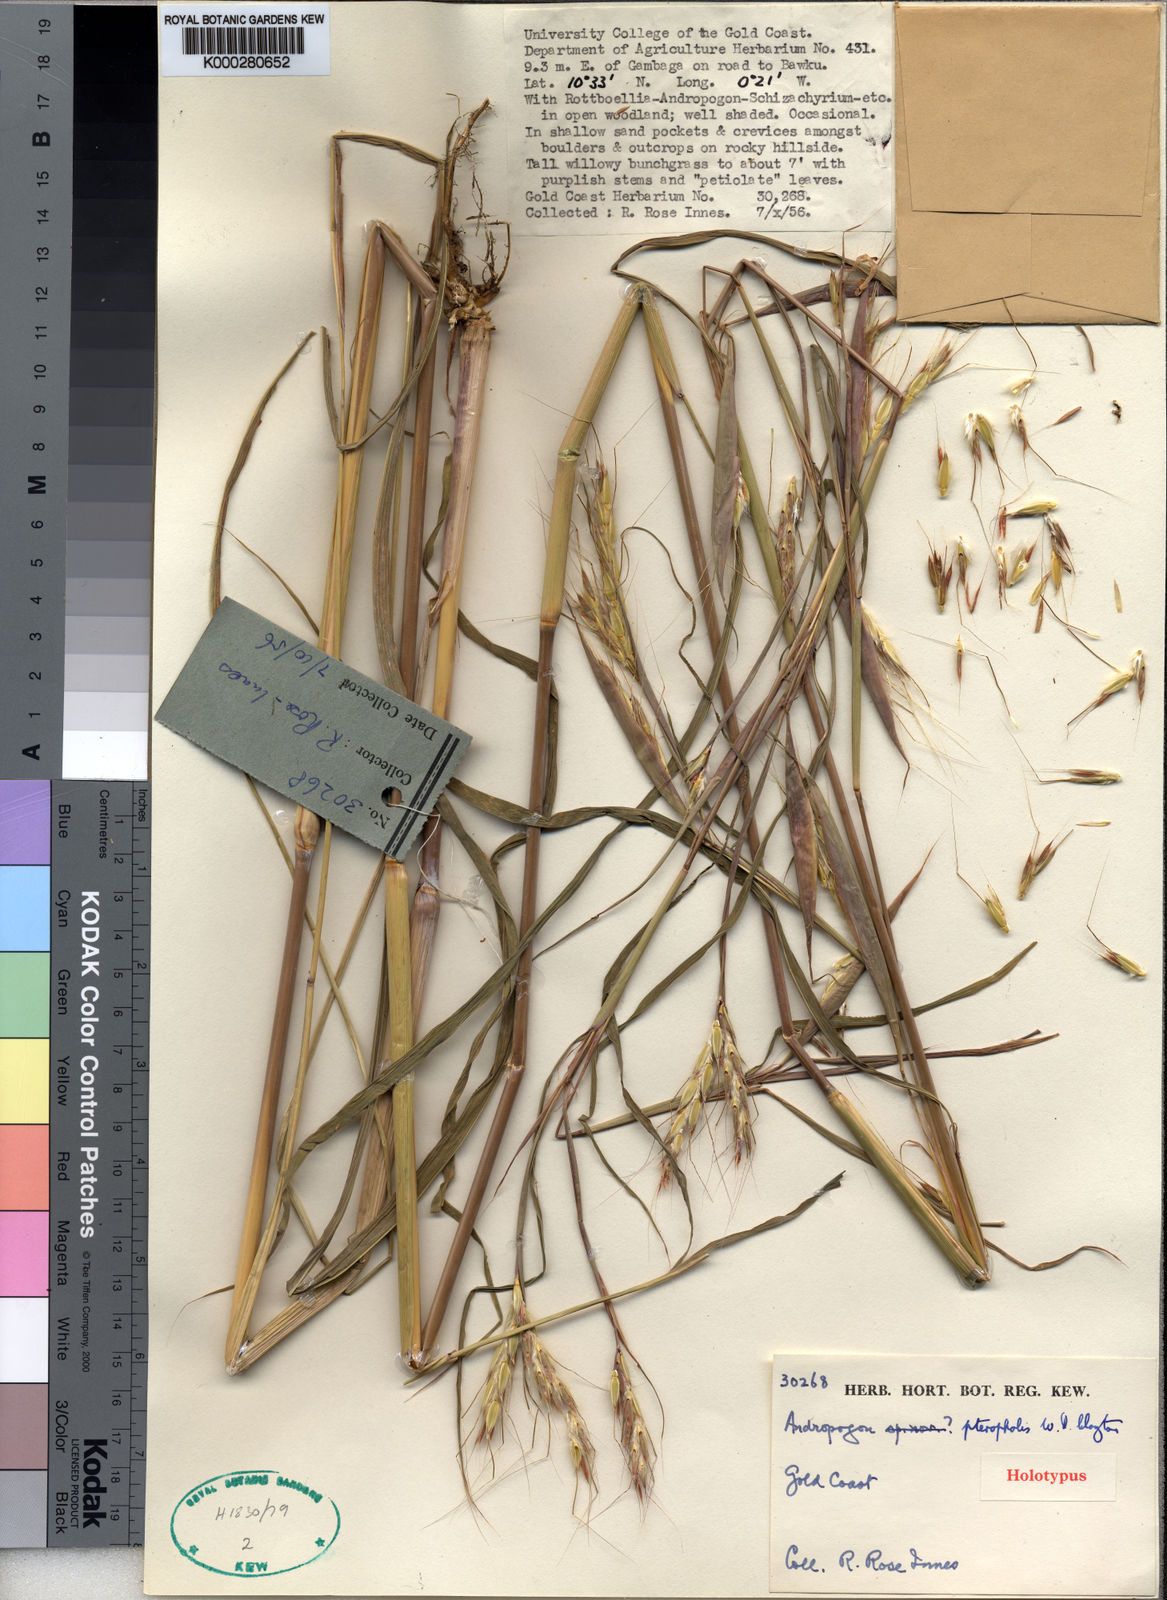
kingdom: Plantae
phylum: Tracheophyta
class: Liliopsida
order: Poales
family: Poaceae
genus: Andropogon
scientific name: Andropogon pteropholis
